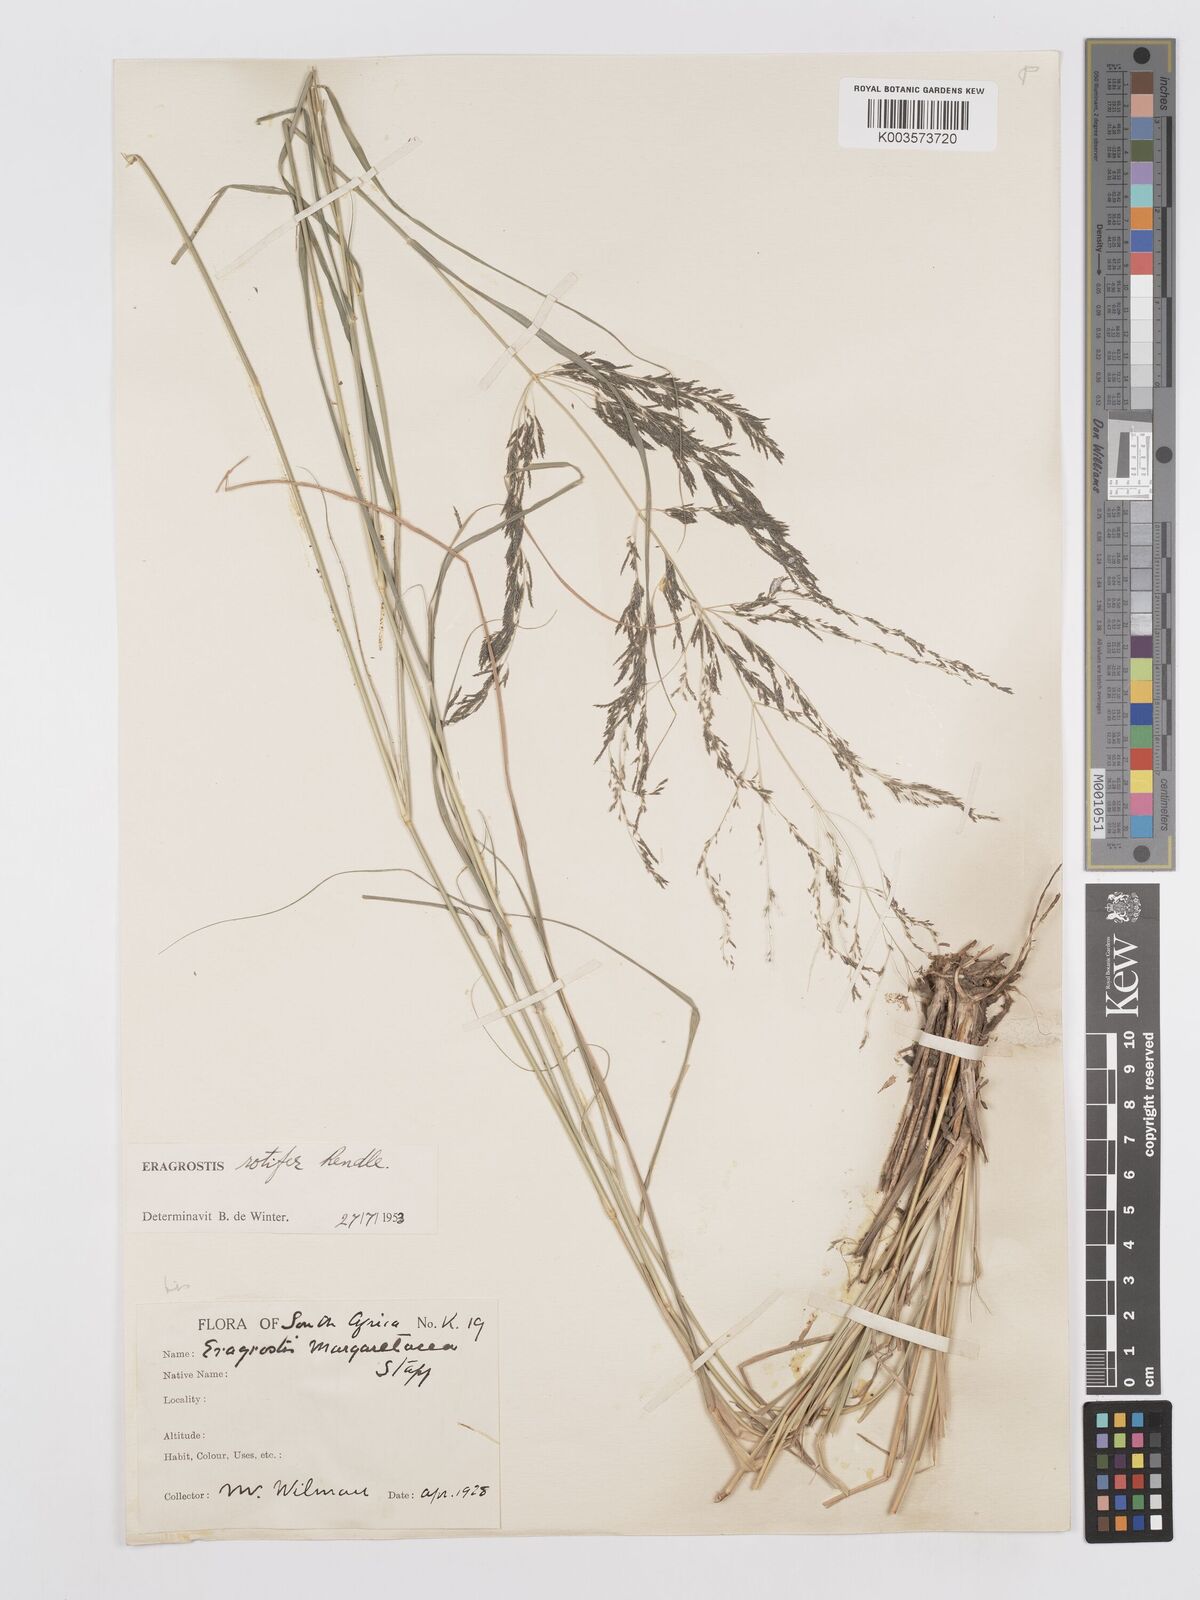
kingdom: Plantae
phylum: Tracheophyta
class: Liliopsida
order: Poales
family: Poaceae
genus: Eragrostis
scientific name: Eragrostis rotifer
